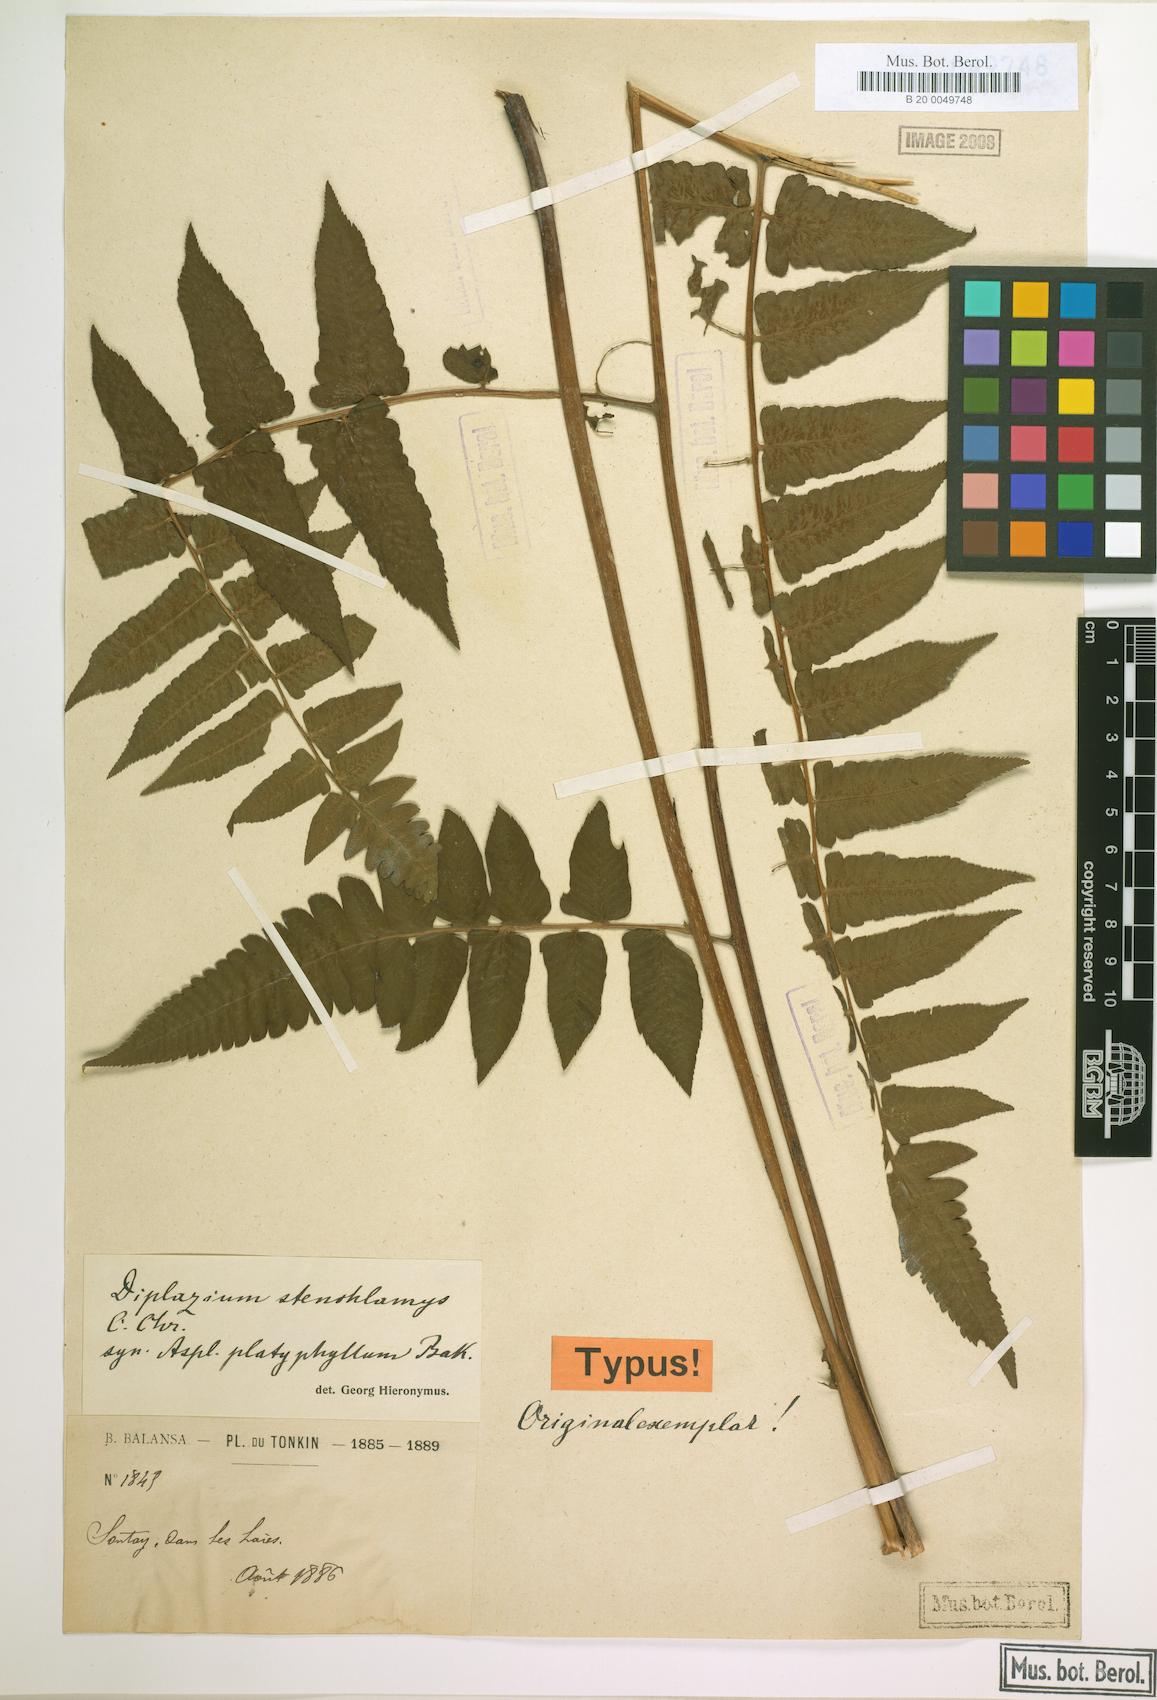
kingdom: Plantae
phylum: Tracheophyta
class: Polypodiopsida
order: Polypodiales
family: Athyriaceae
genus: Diplazium
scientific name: Diplazium stenochlamys
